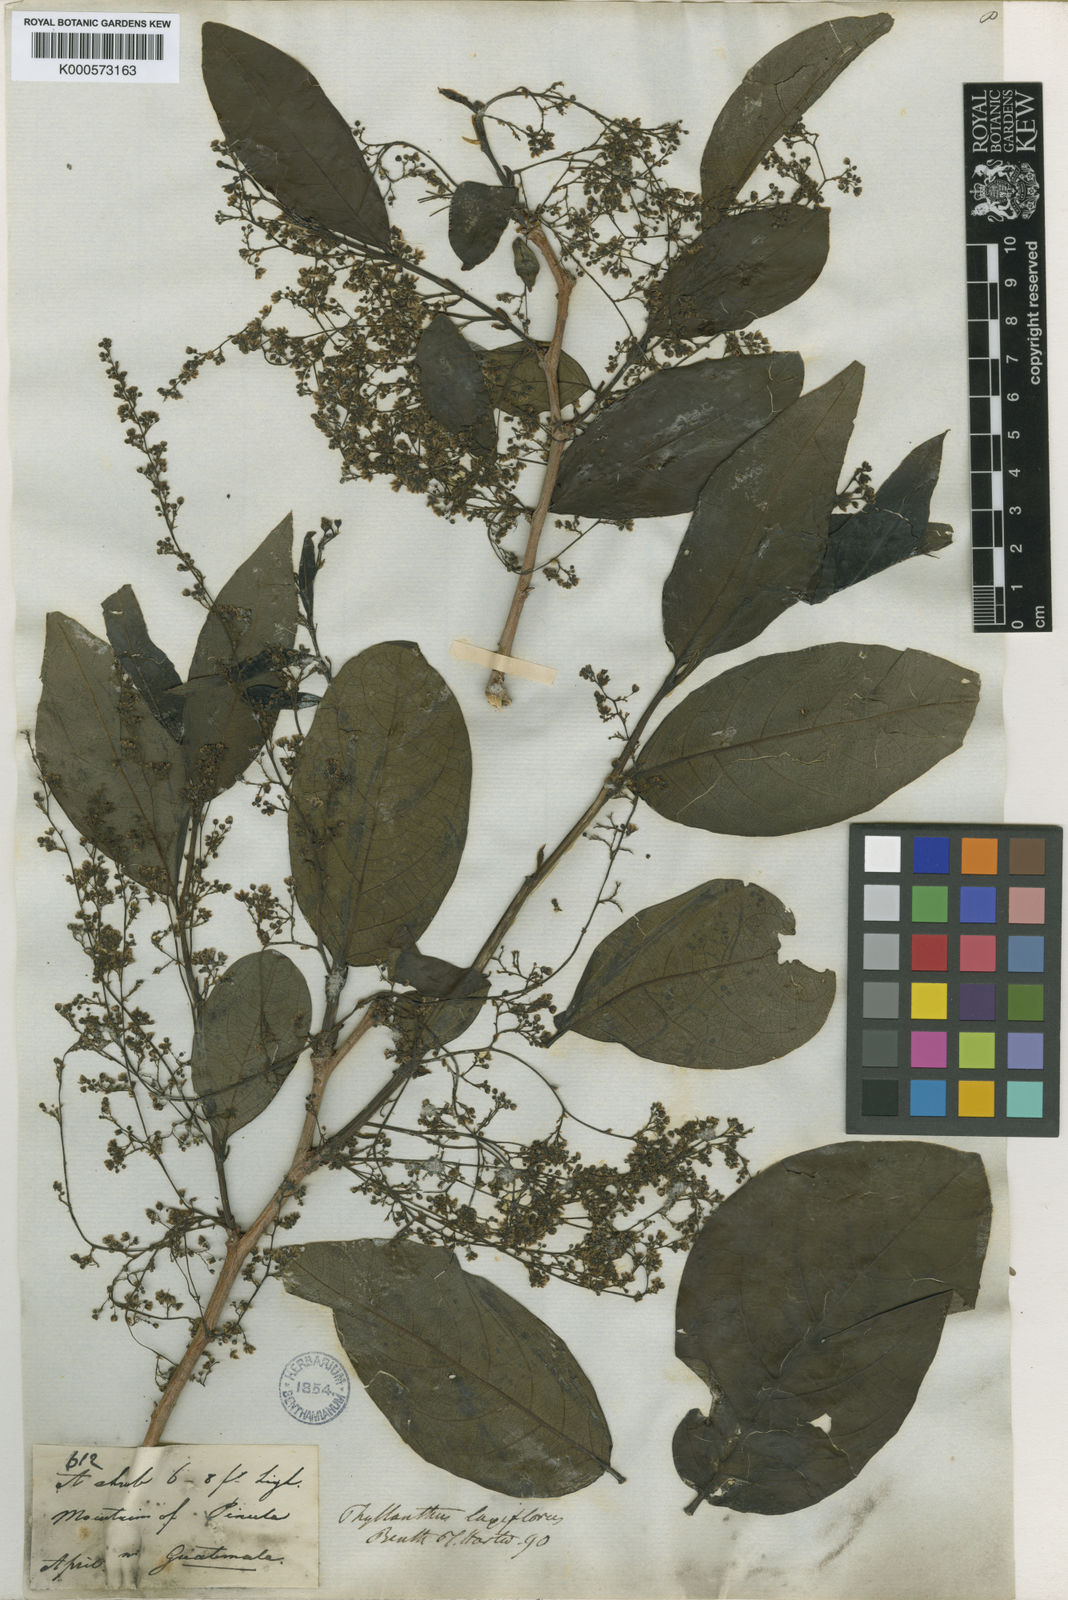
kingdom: Plantae
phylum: Tracheophyta
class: Magnoliopsida
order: Malpighiales
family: Phyllanthaceae
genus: Phyllanthus
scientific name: Phyllanthus laxiflorus
